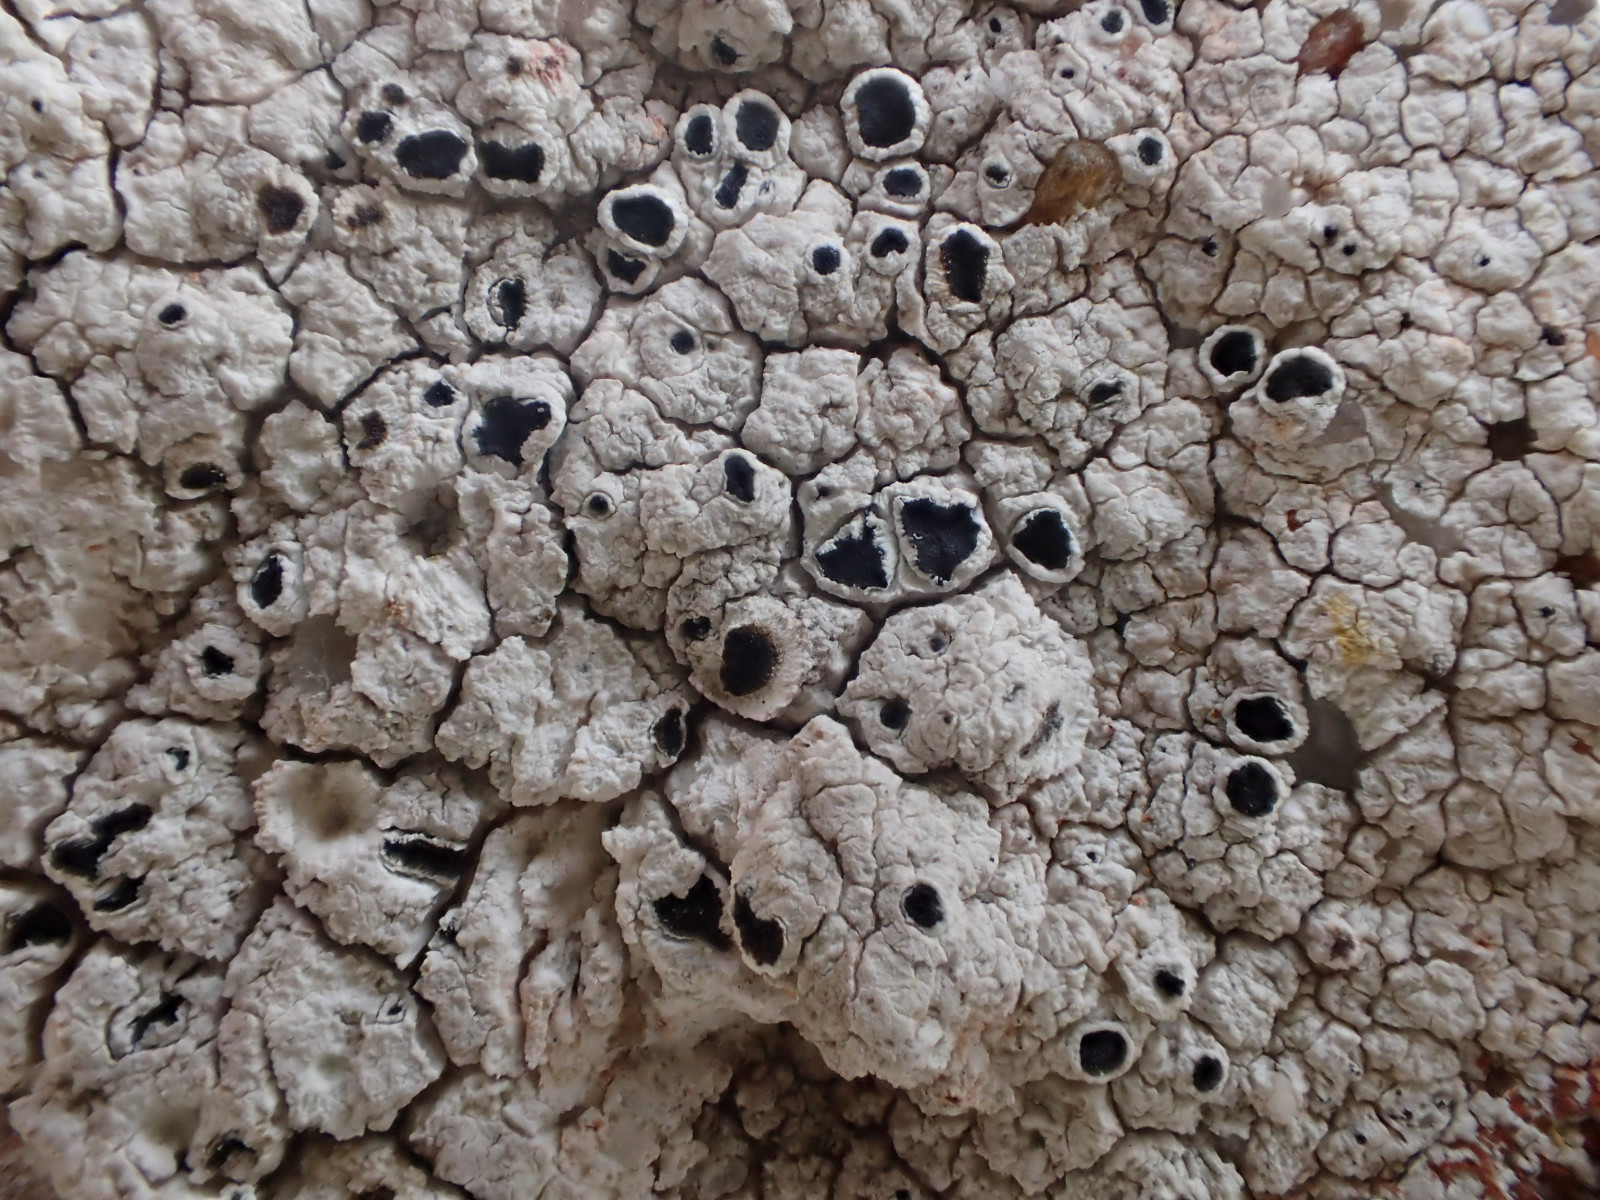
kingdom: Fungi
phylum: Ascomycota
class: Lecanoromycetes
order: Lecanorales
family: Tephromelataceae
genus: Tephromela
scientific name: Tephromela atra
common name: sortfrugtet kantskivelav
